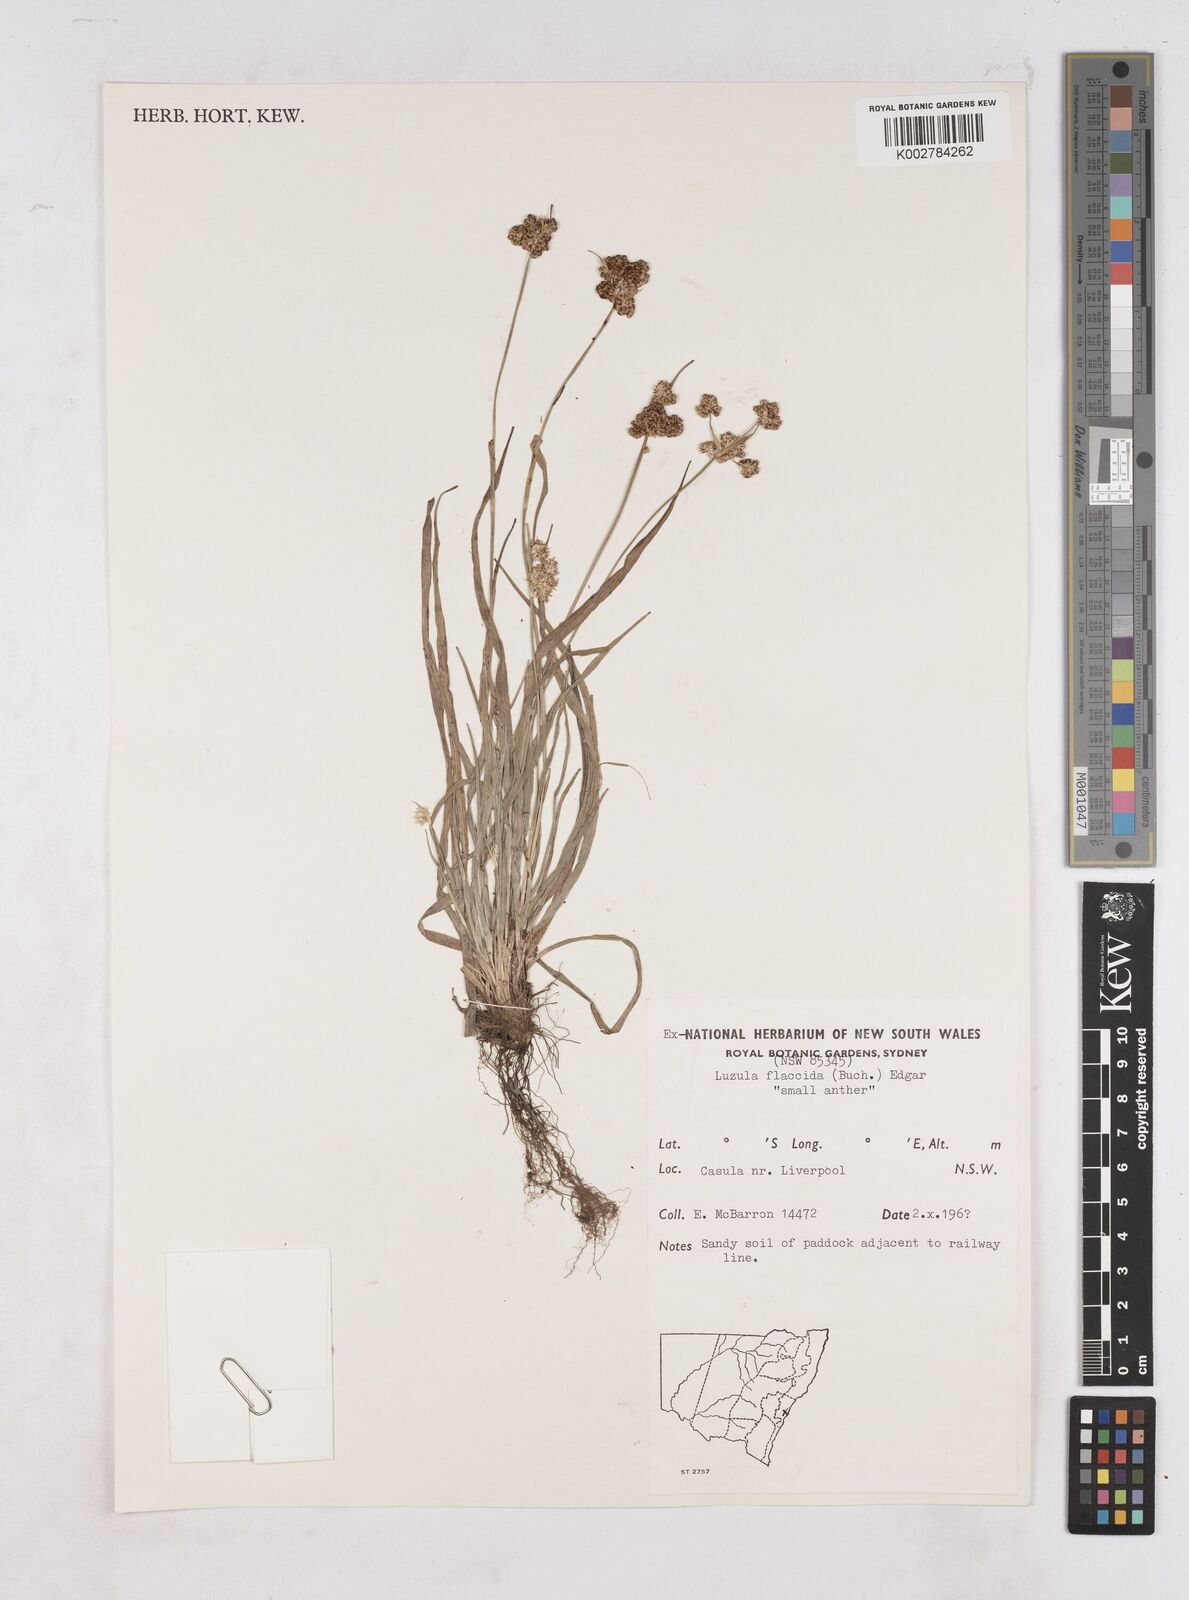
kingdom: Plantae
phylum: Tracheophyta
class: Liliopsida
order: Poales
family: Juncaceae
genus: Luzula
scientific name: Luzula flaccida
